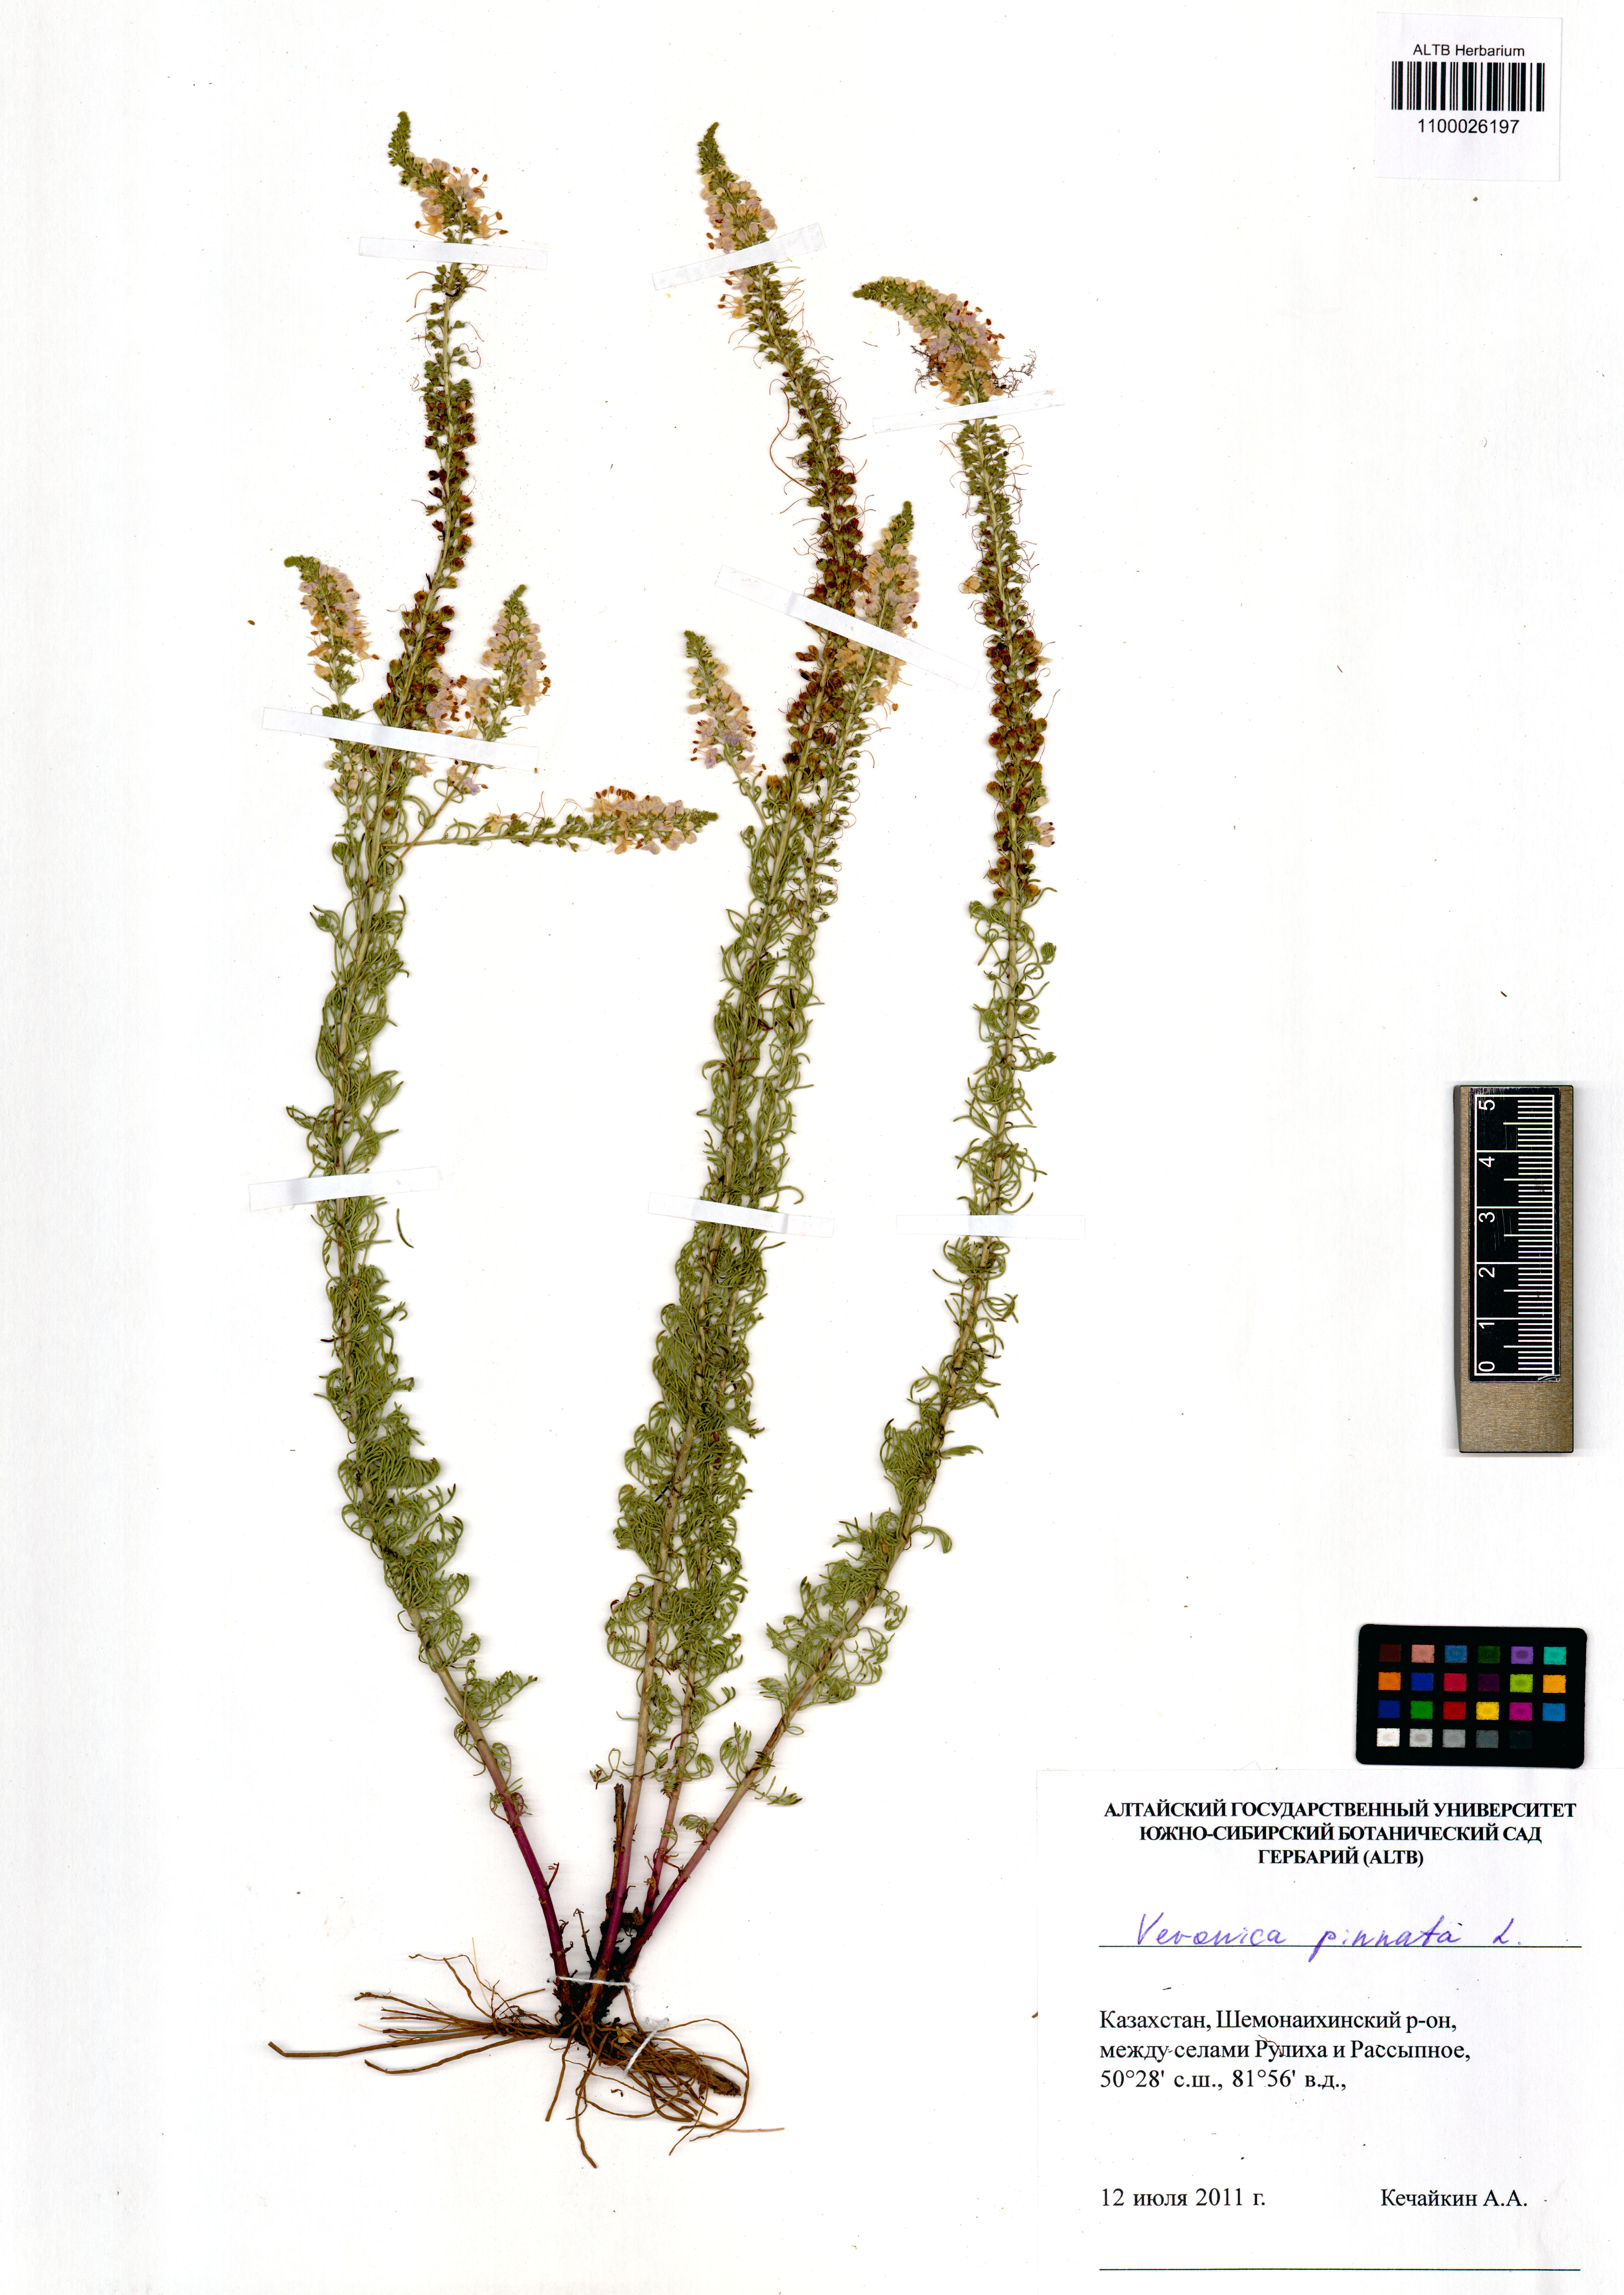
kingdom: Plantae
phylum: Tracheophyta
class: Magnoliopsida
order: Lamiales
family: Plantaginaceae
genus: Veronica
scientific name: Veronica pinnata
